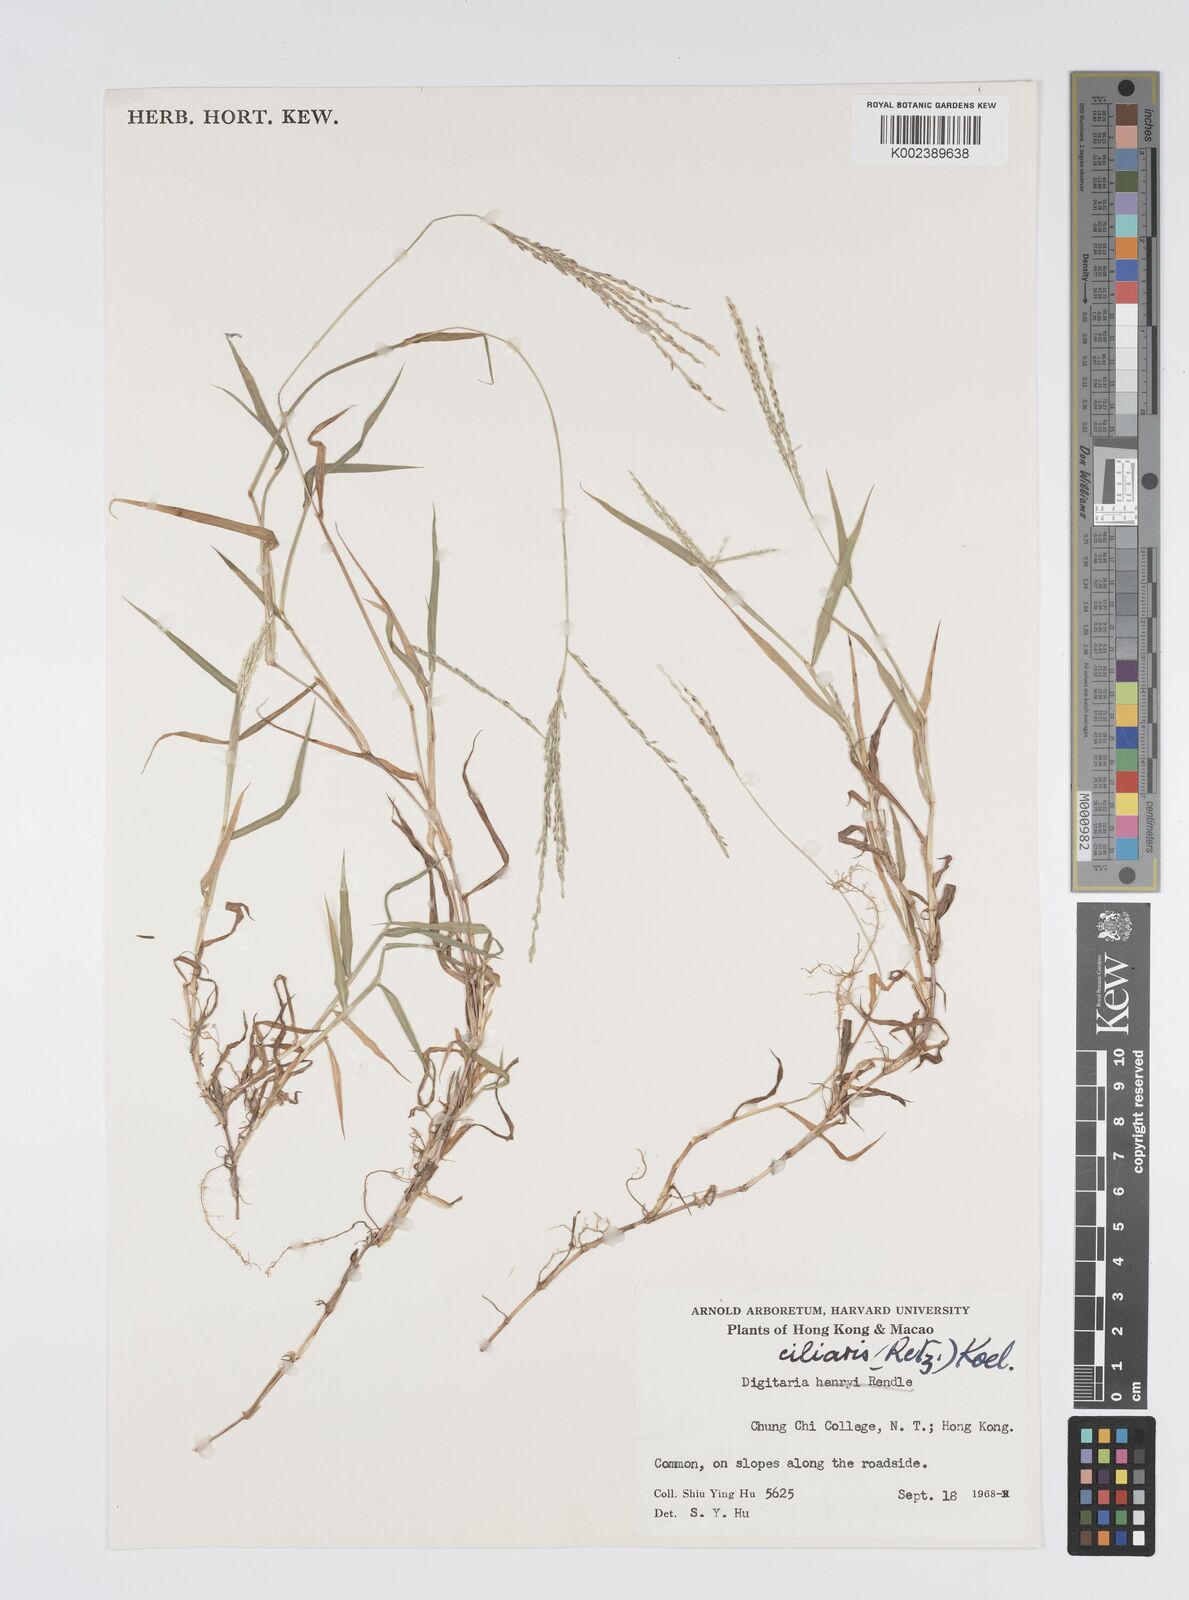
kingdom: Plantae
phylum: Tracheophyta
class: Liliopsida
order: Poales
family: Poaceae
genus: Digitaria
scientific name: Digitaria ciliaris
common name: Tropical finger-grass
